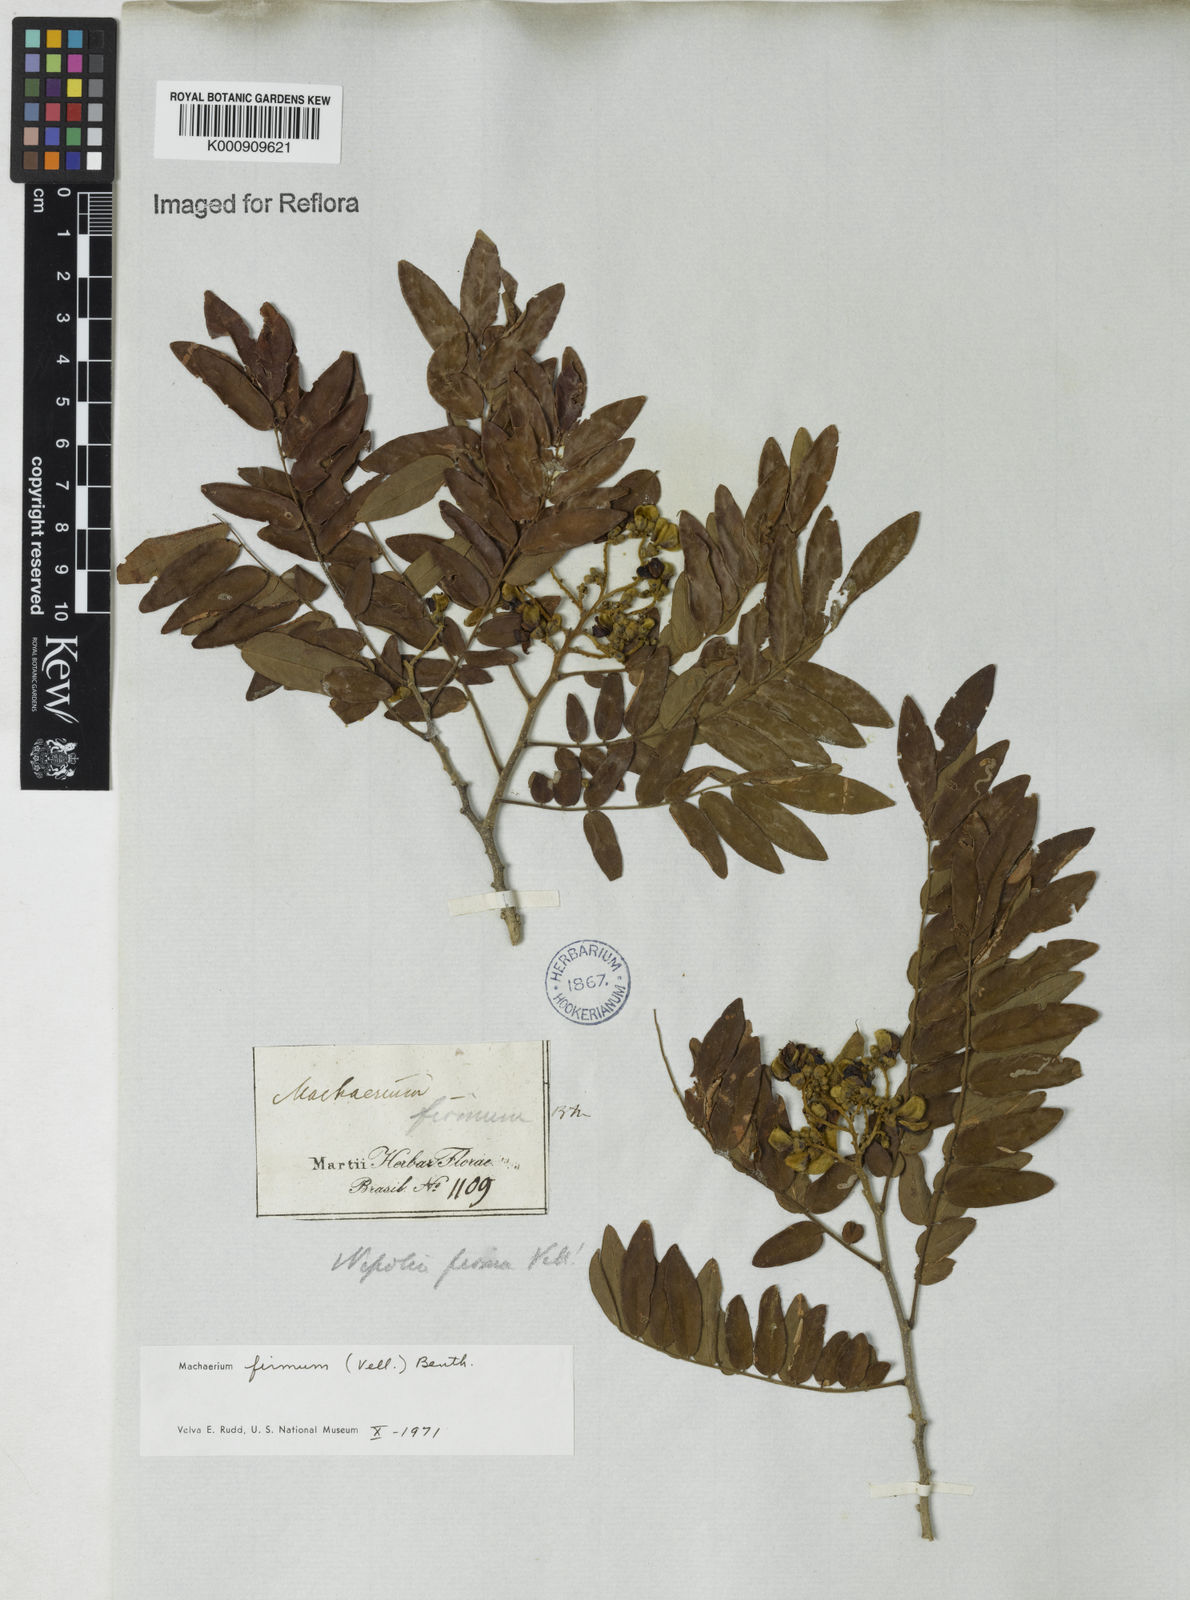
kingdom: Plantae
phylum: Tracheophyta
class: Magnoliopsida
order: Fabales
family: Fabaceae
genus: Machaerium
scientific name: Machaerium firmum
